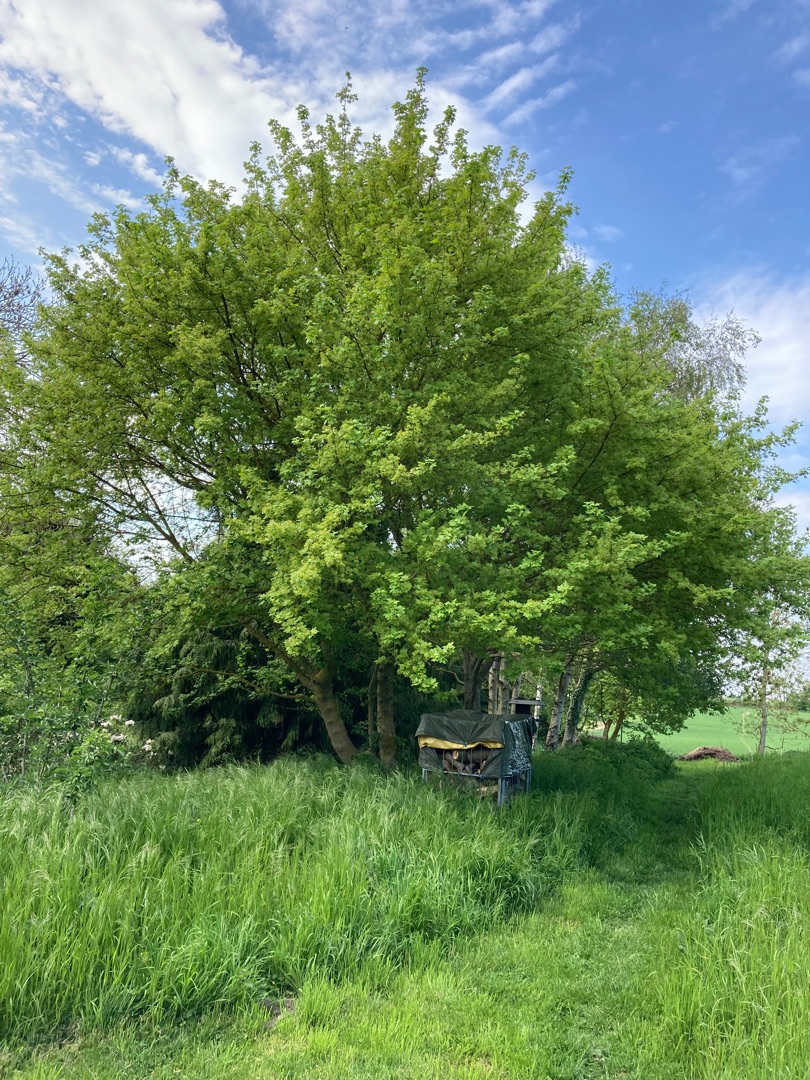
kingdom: Plantae
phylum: Tracheophyta
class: Magnoliopsida
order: Sapindales
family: Sapindaceae
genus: Acer
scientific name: Acer campestre
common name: Navr
